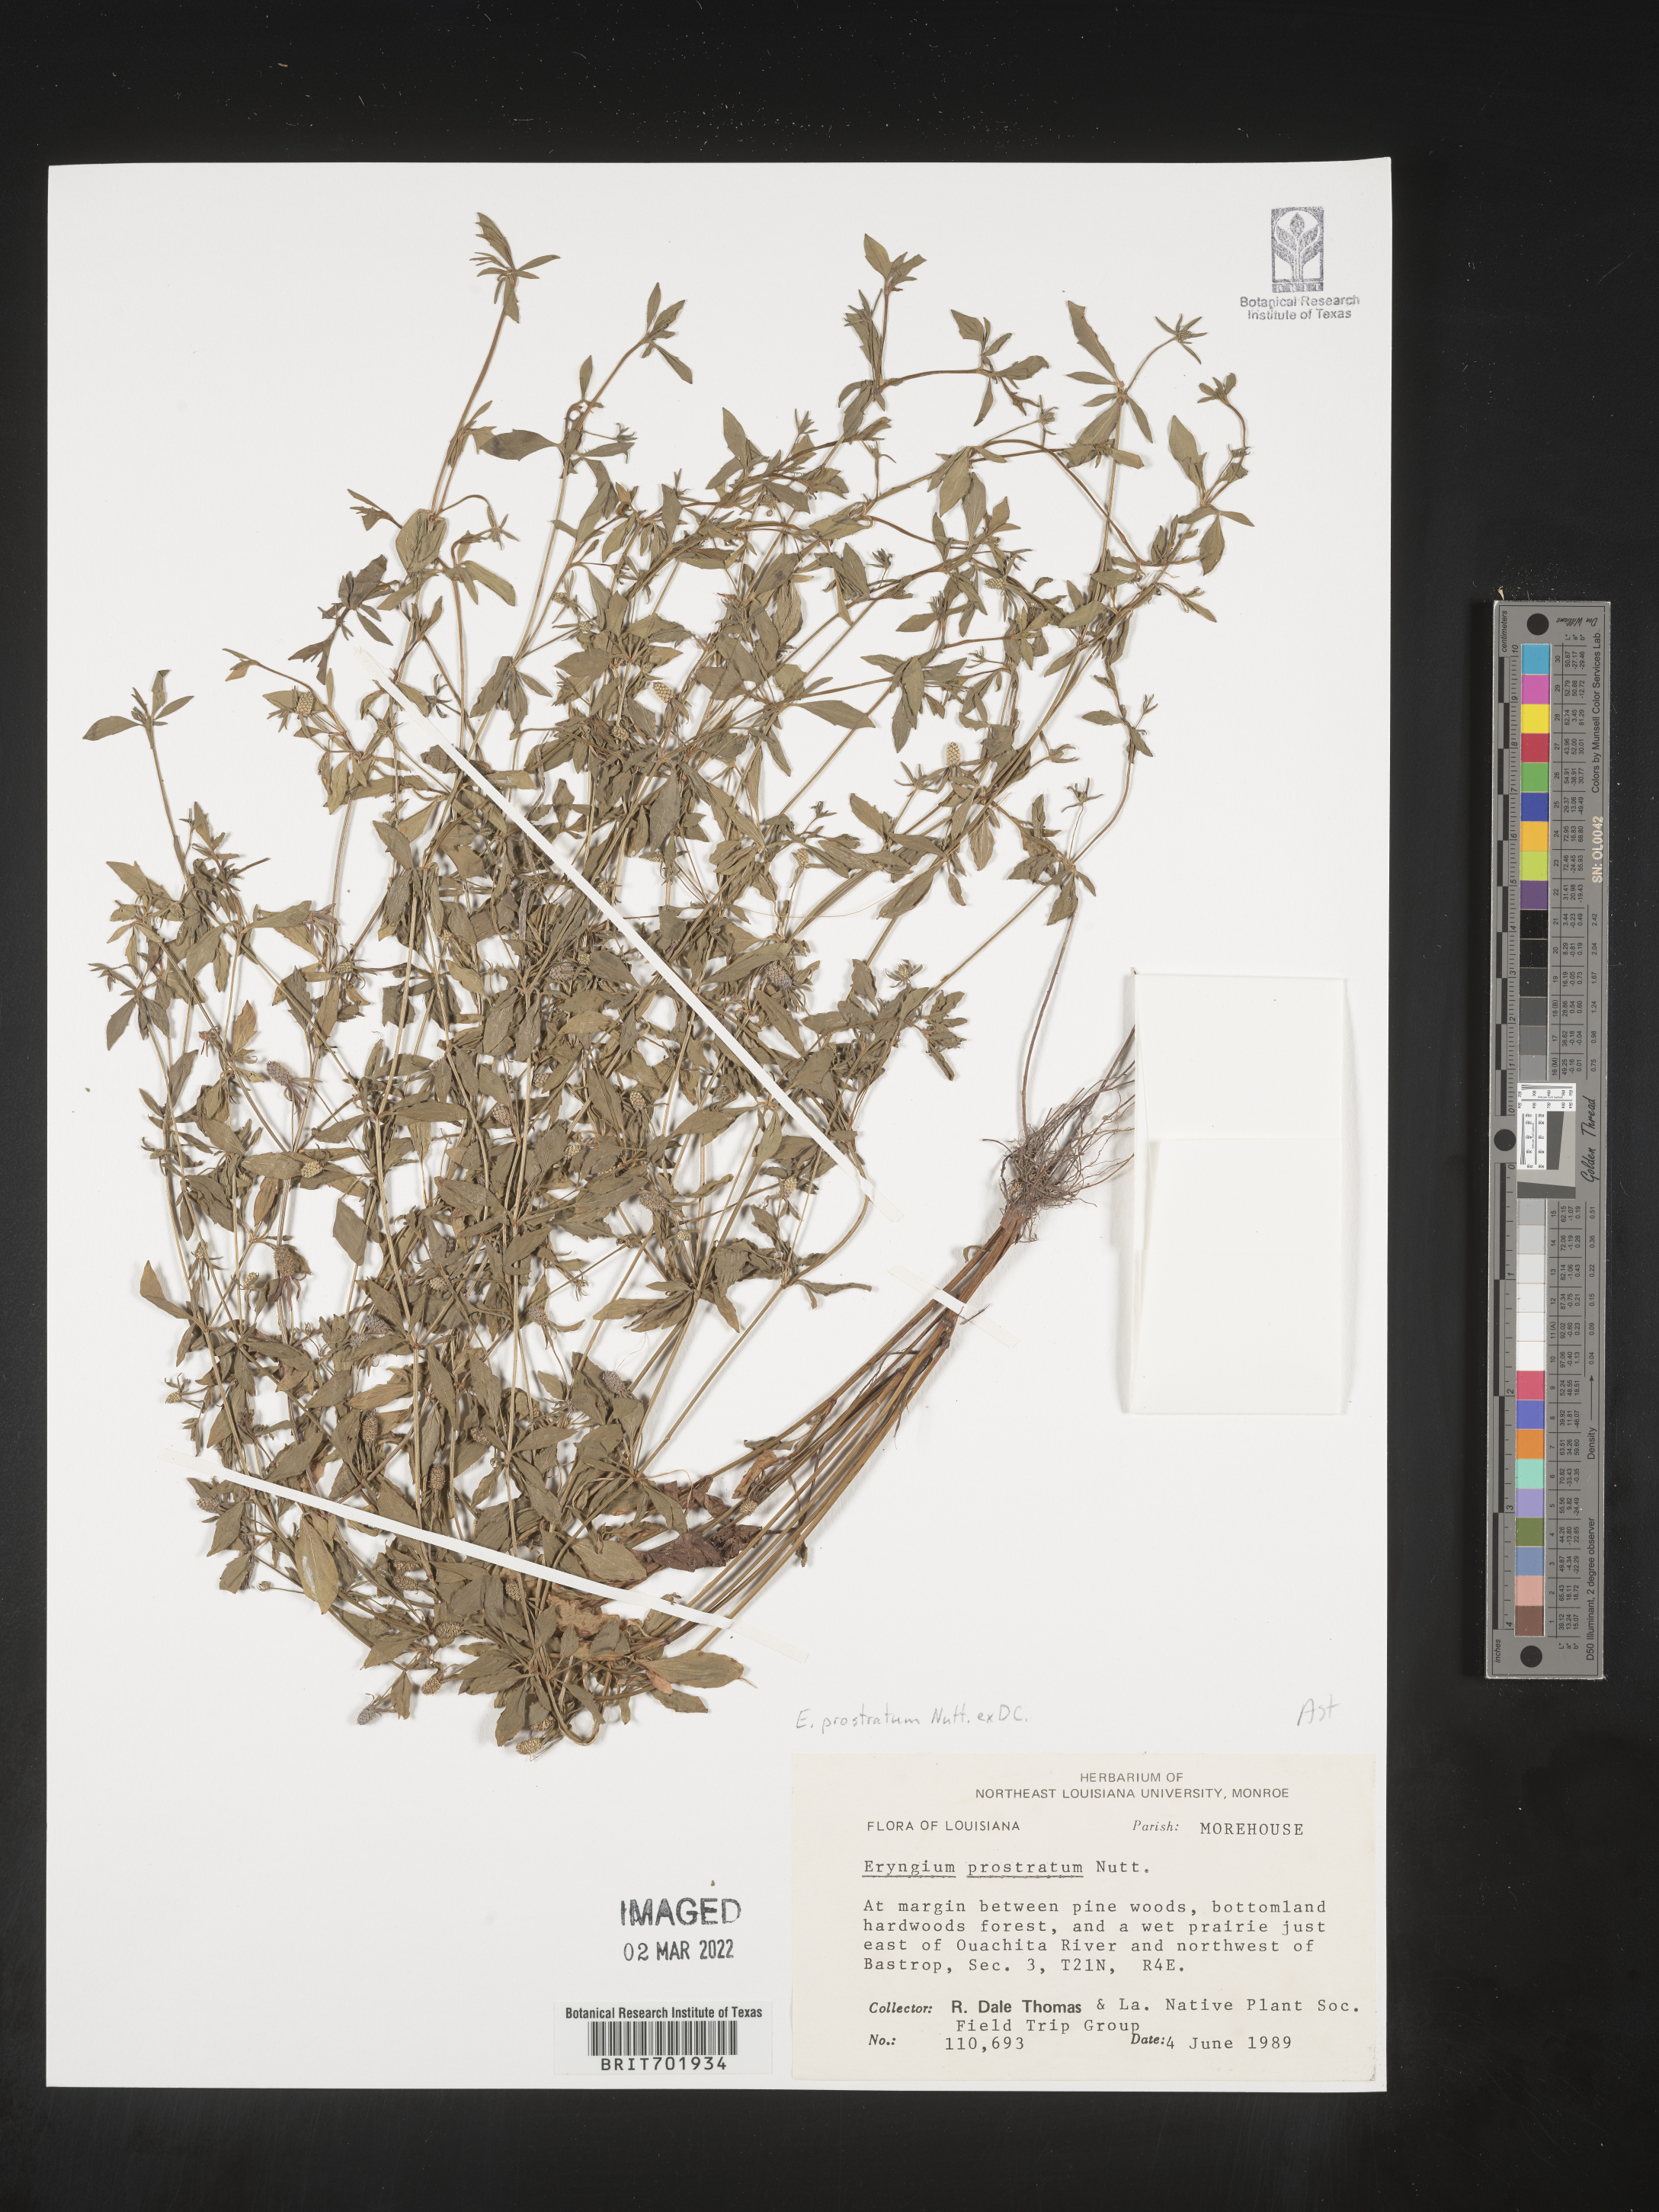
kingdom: Plantae
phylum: Tracheophyta
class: Magnoliopsida
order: Asterales
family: Asteraceae
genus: Eupatorium
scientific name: Eupatorium
